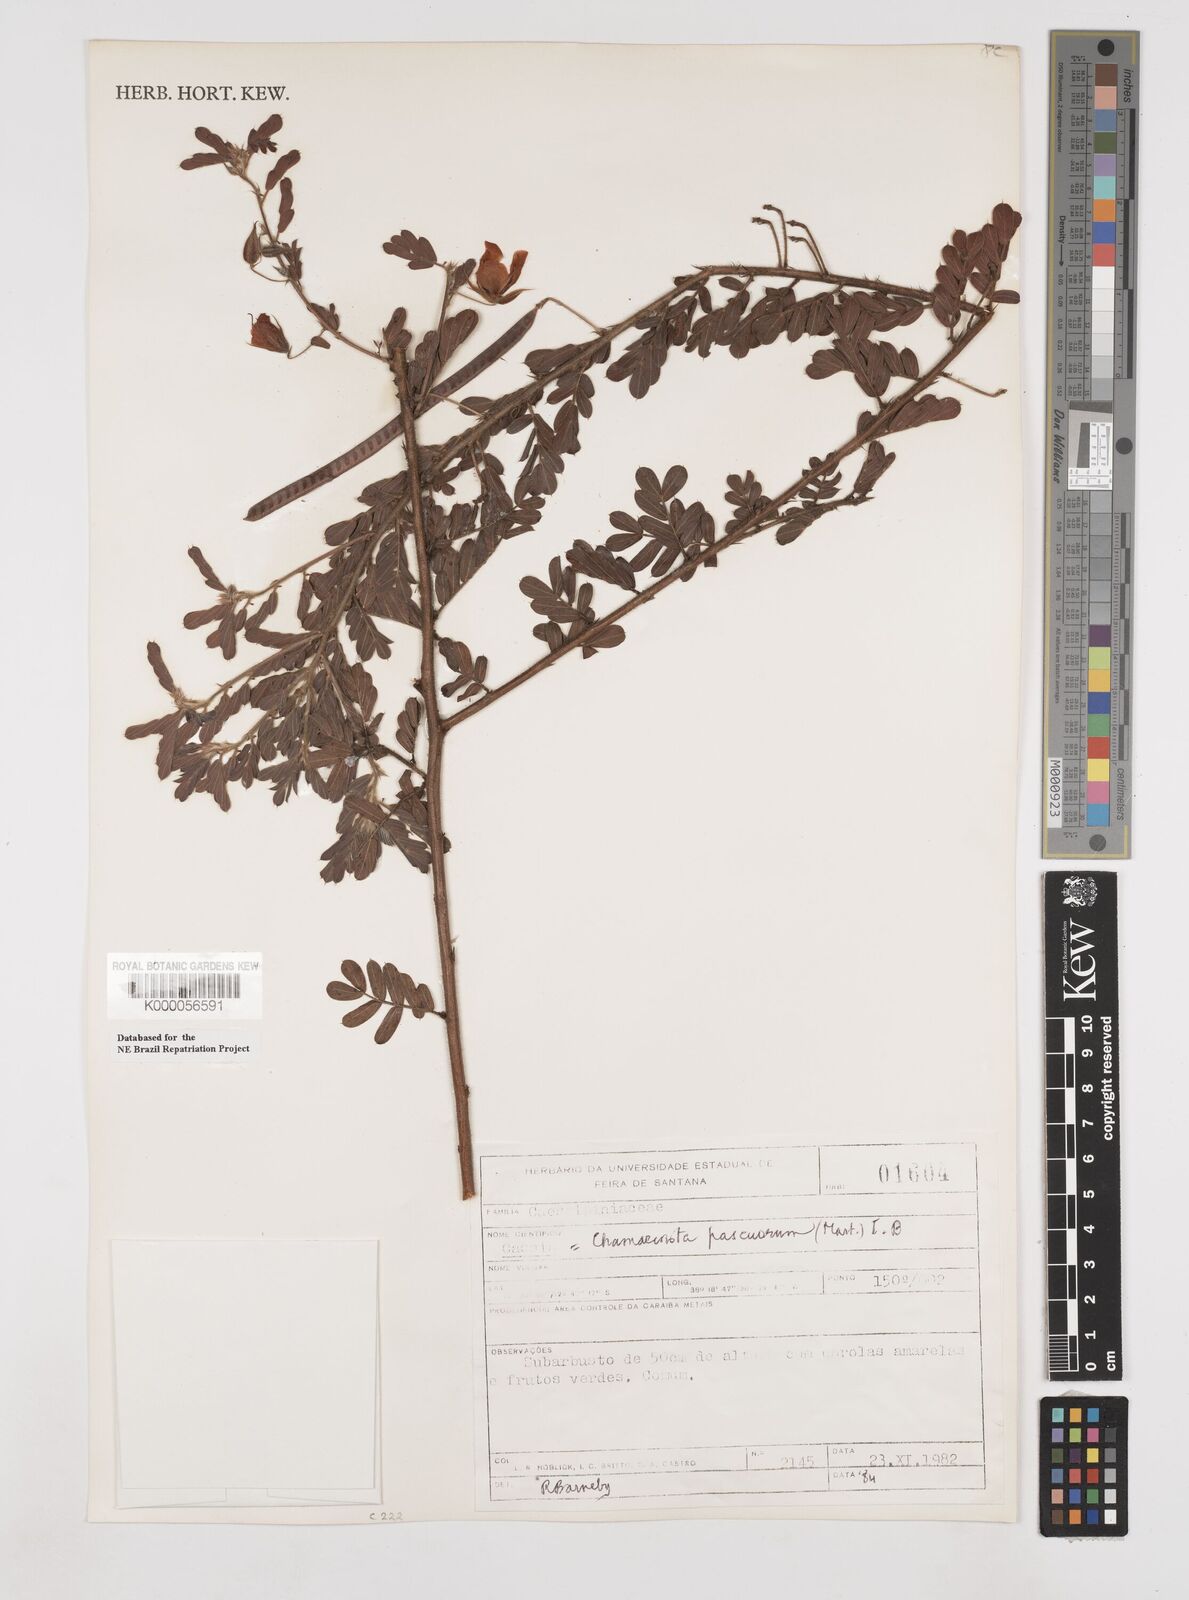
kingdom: Plantae
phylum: Tracheophyta
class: Magnoliopsida
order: Fabales
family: Fabaceae
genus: Chamaecrista
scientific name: Chamaecrista pascuorum
